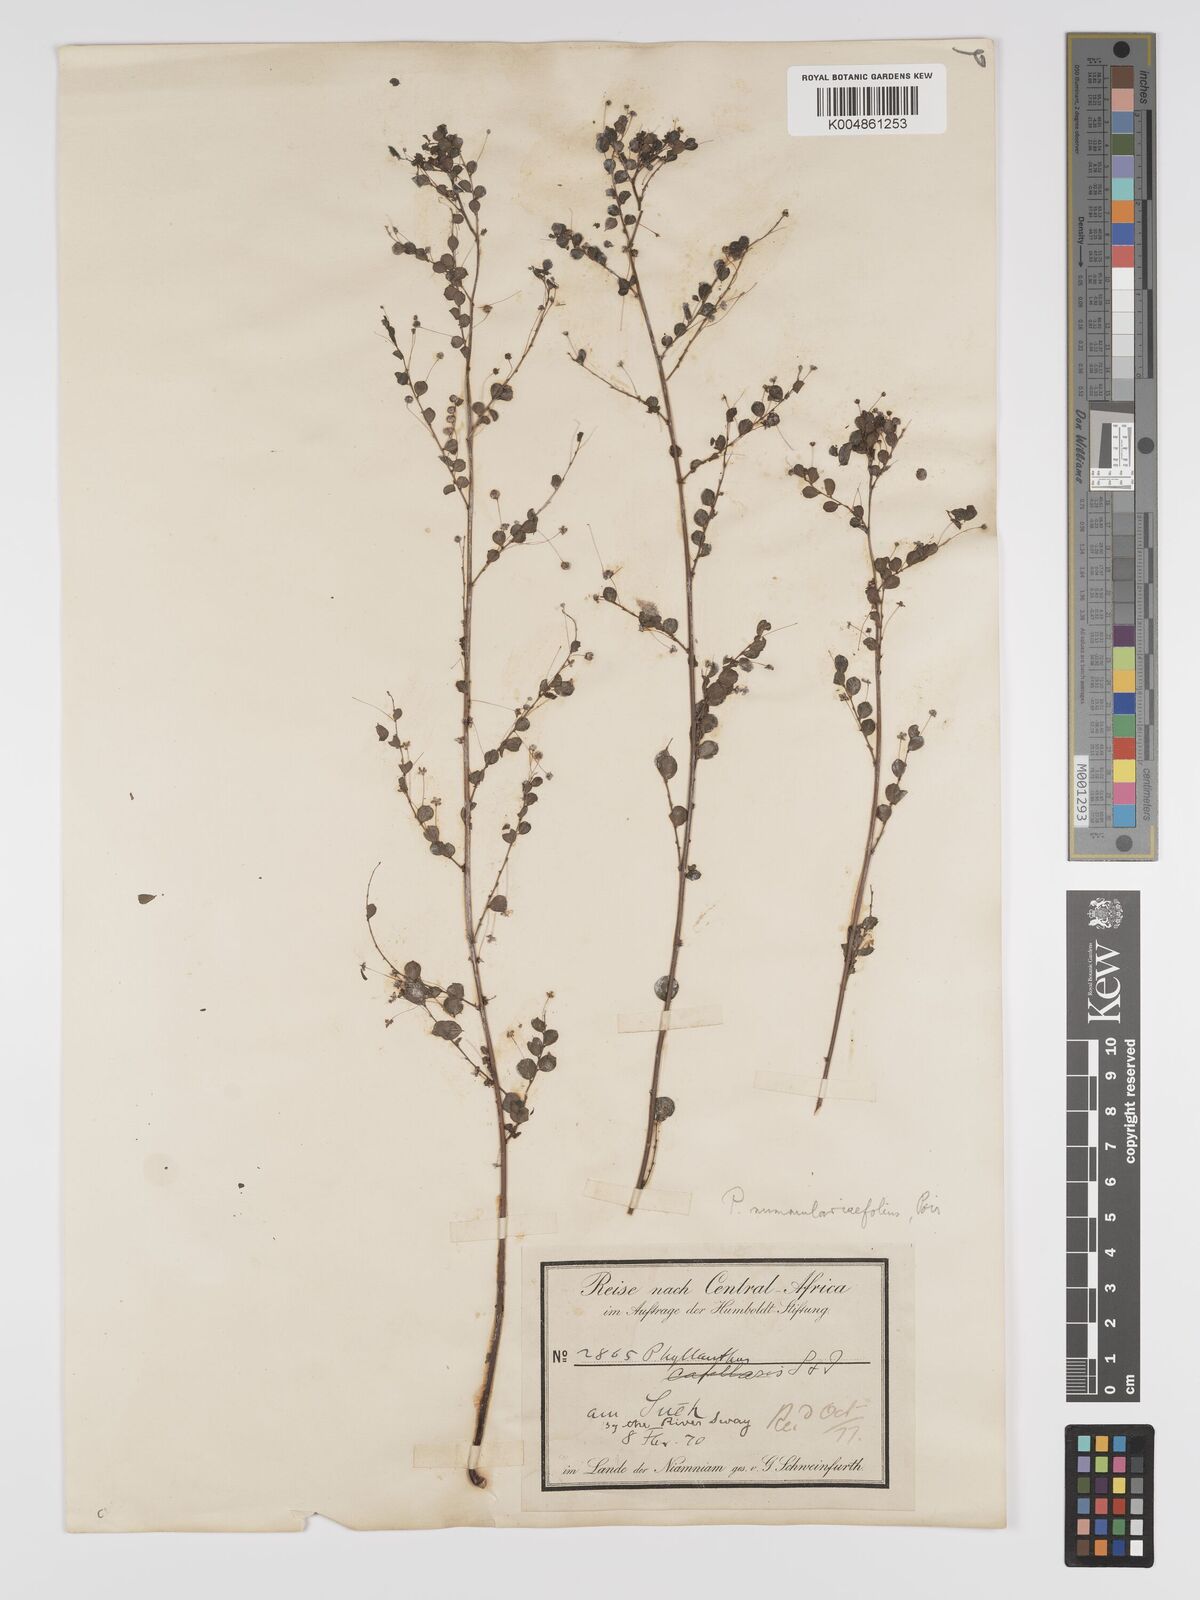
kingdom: Plantae
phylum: Tracheophyta
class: Magnoliopsida
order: Malpighiales
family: Phyllanthaceae
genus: Phyllanthus
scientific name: Phyllanthus nummulariifolius
